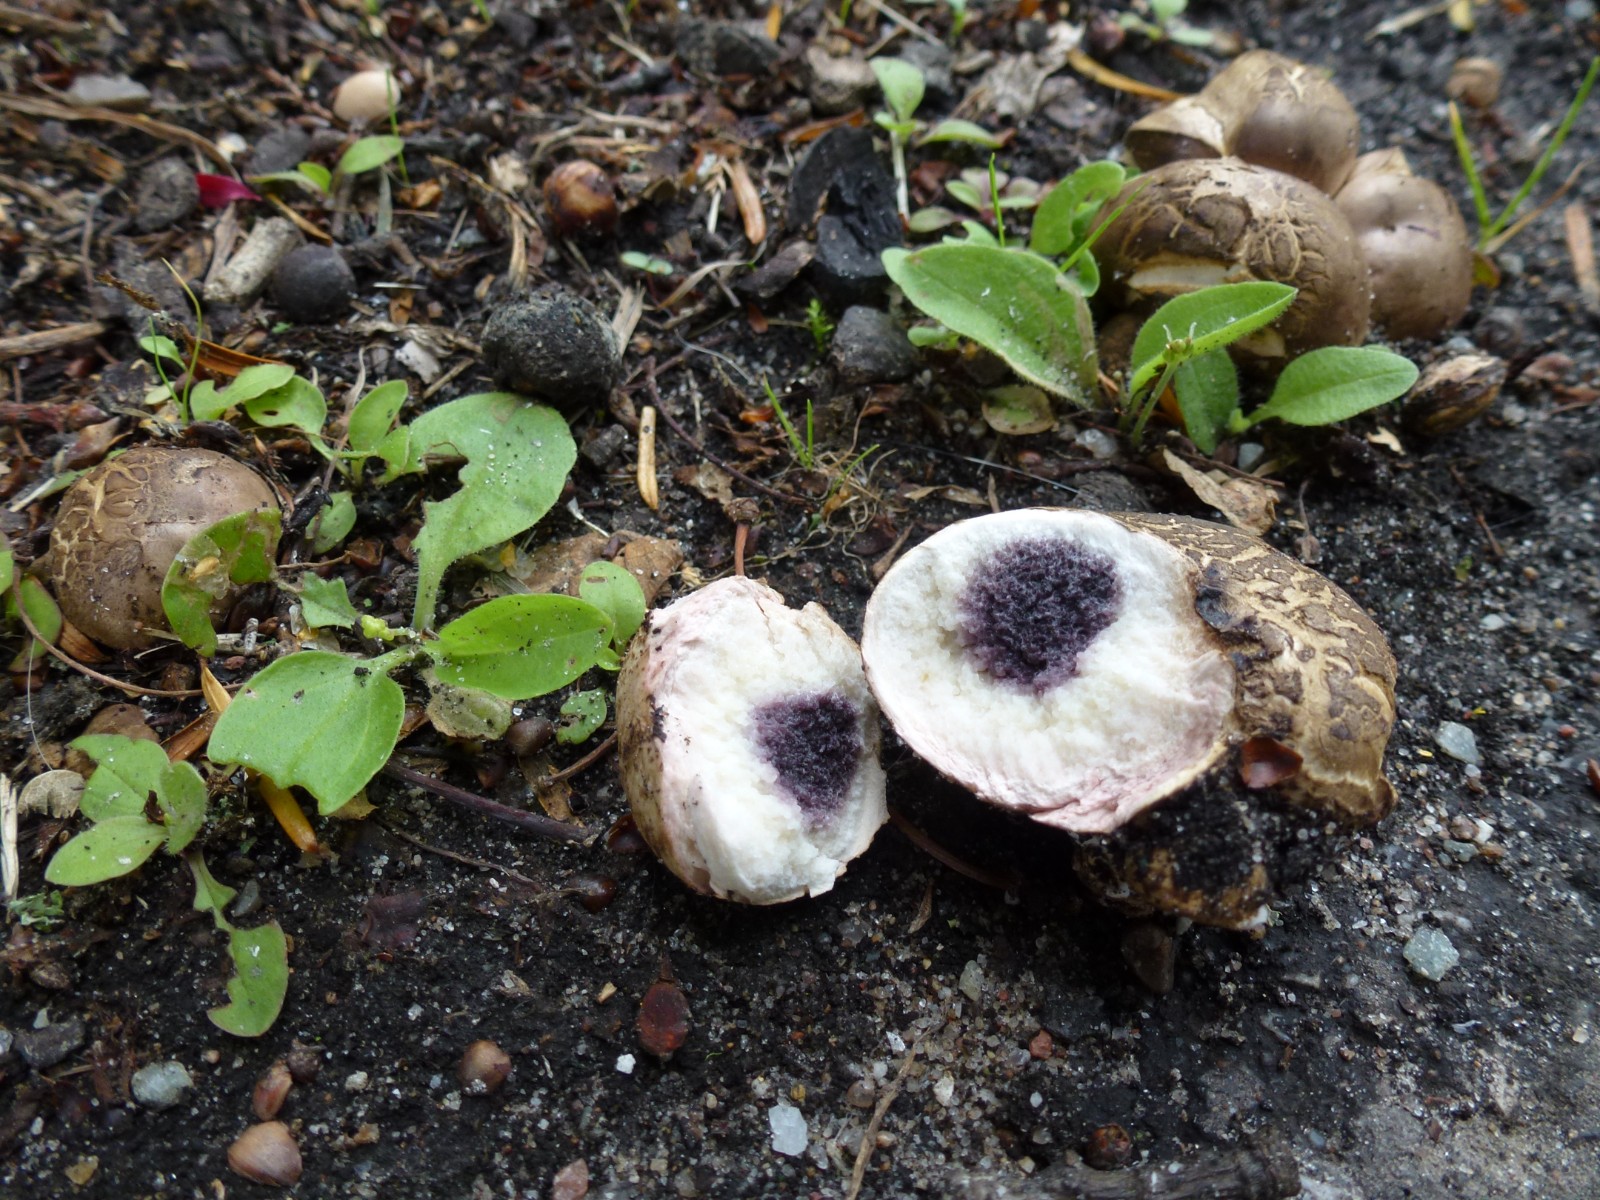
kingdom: Fungi
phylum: Basidiomycota
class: Agaricomycetes
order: Boletales
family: Sclerodermataceae
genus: Scleroderma
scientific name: Scleroderma bovista
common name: bovist-bruskbold
